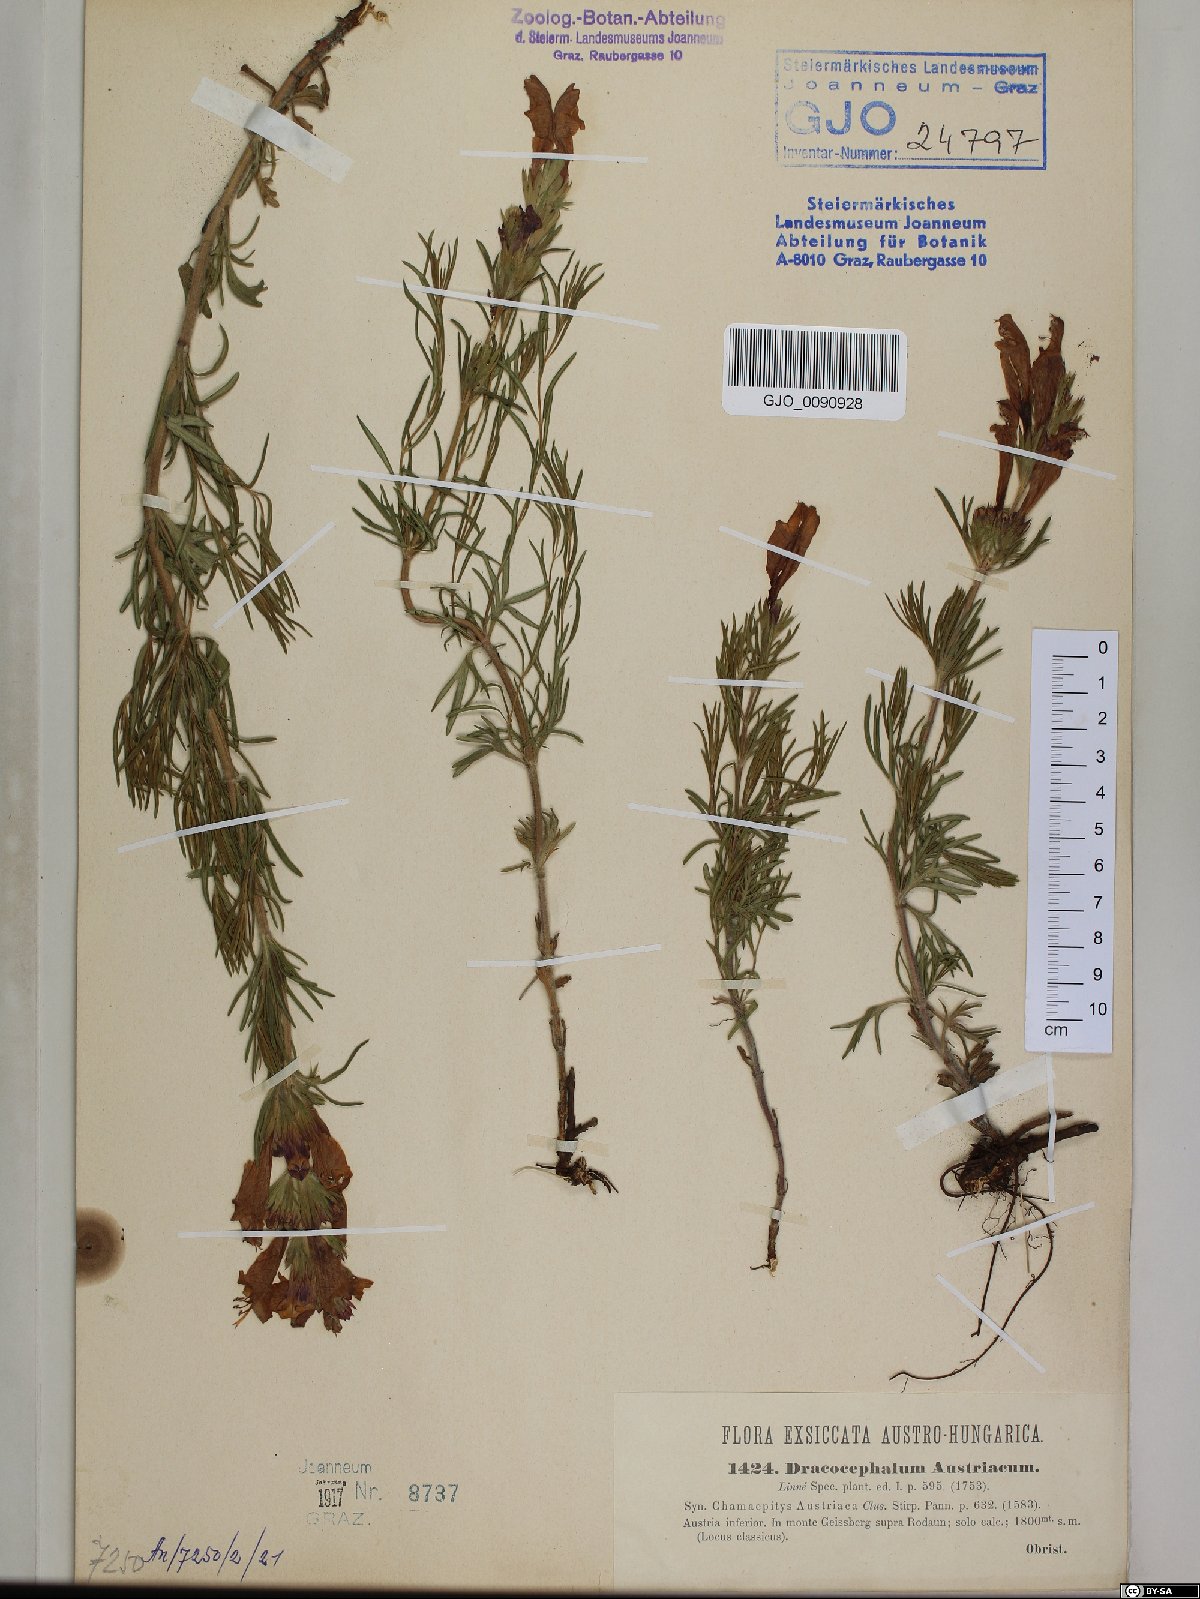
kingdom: Plantae
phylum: Tracheophyta
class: Magnoliopsida
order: Lamiales
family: Lamiaceae
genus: Dracocephalum
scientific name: Dracocephalum austriacum
